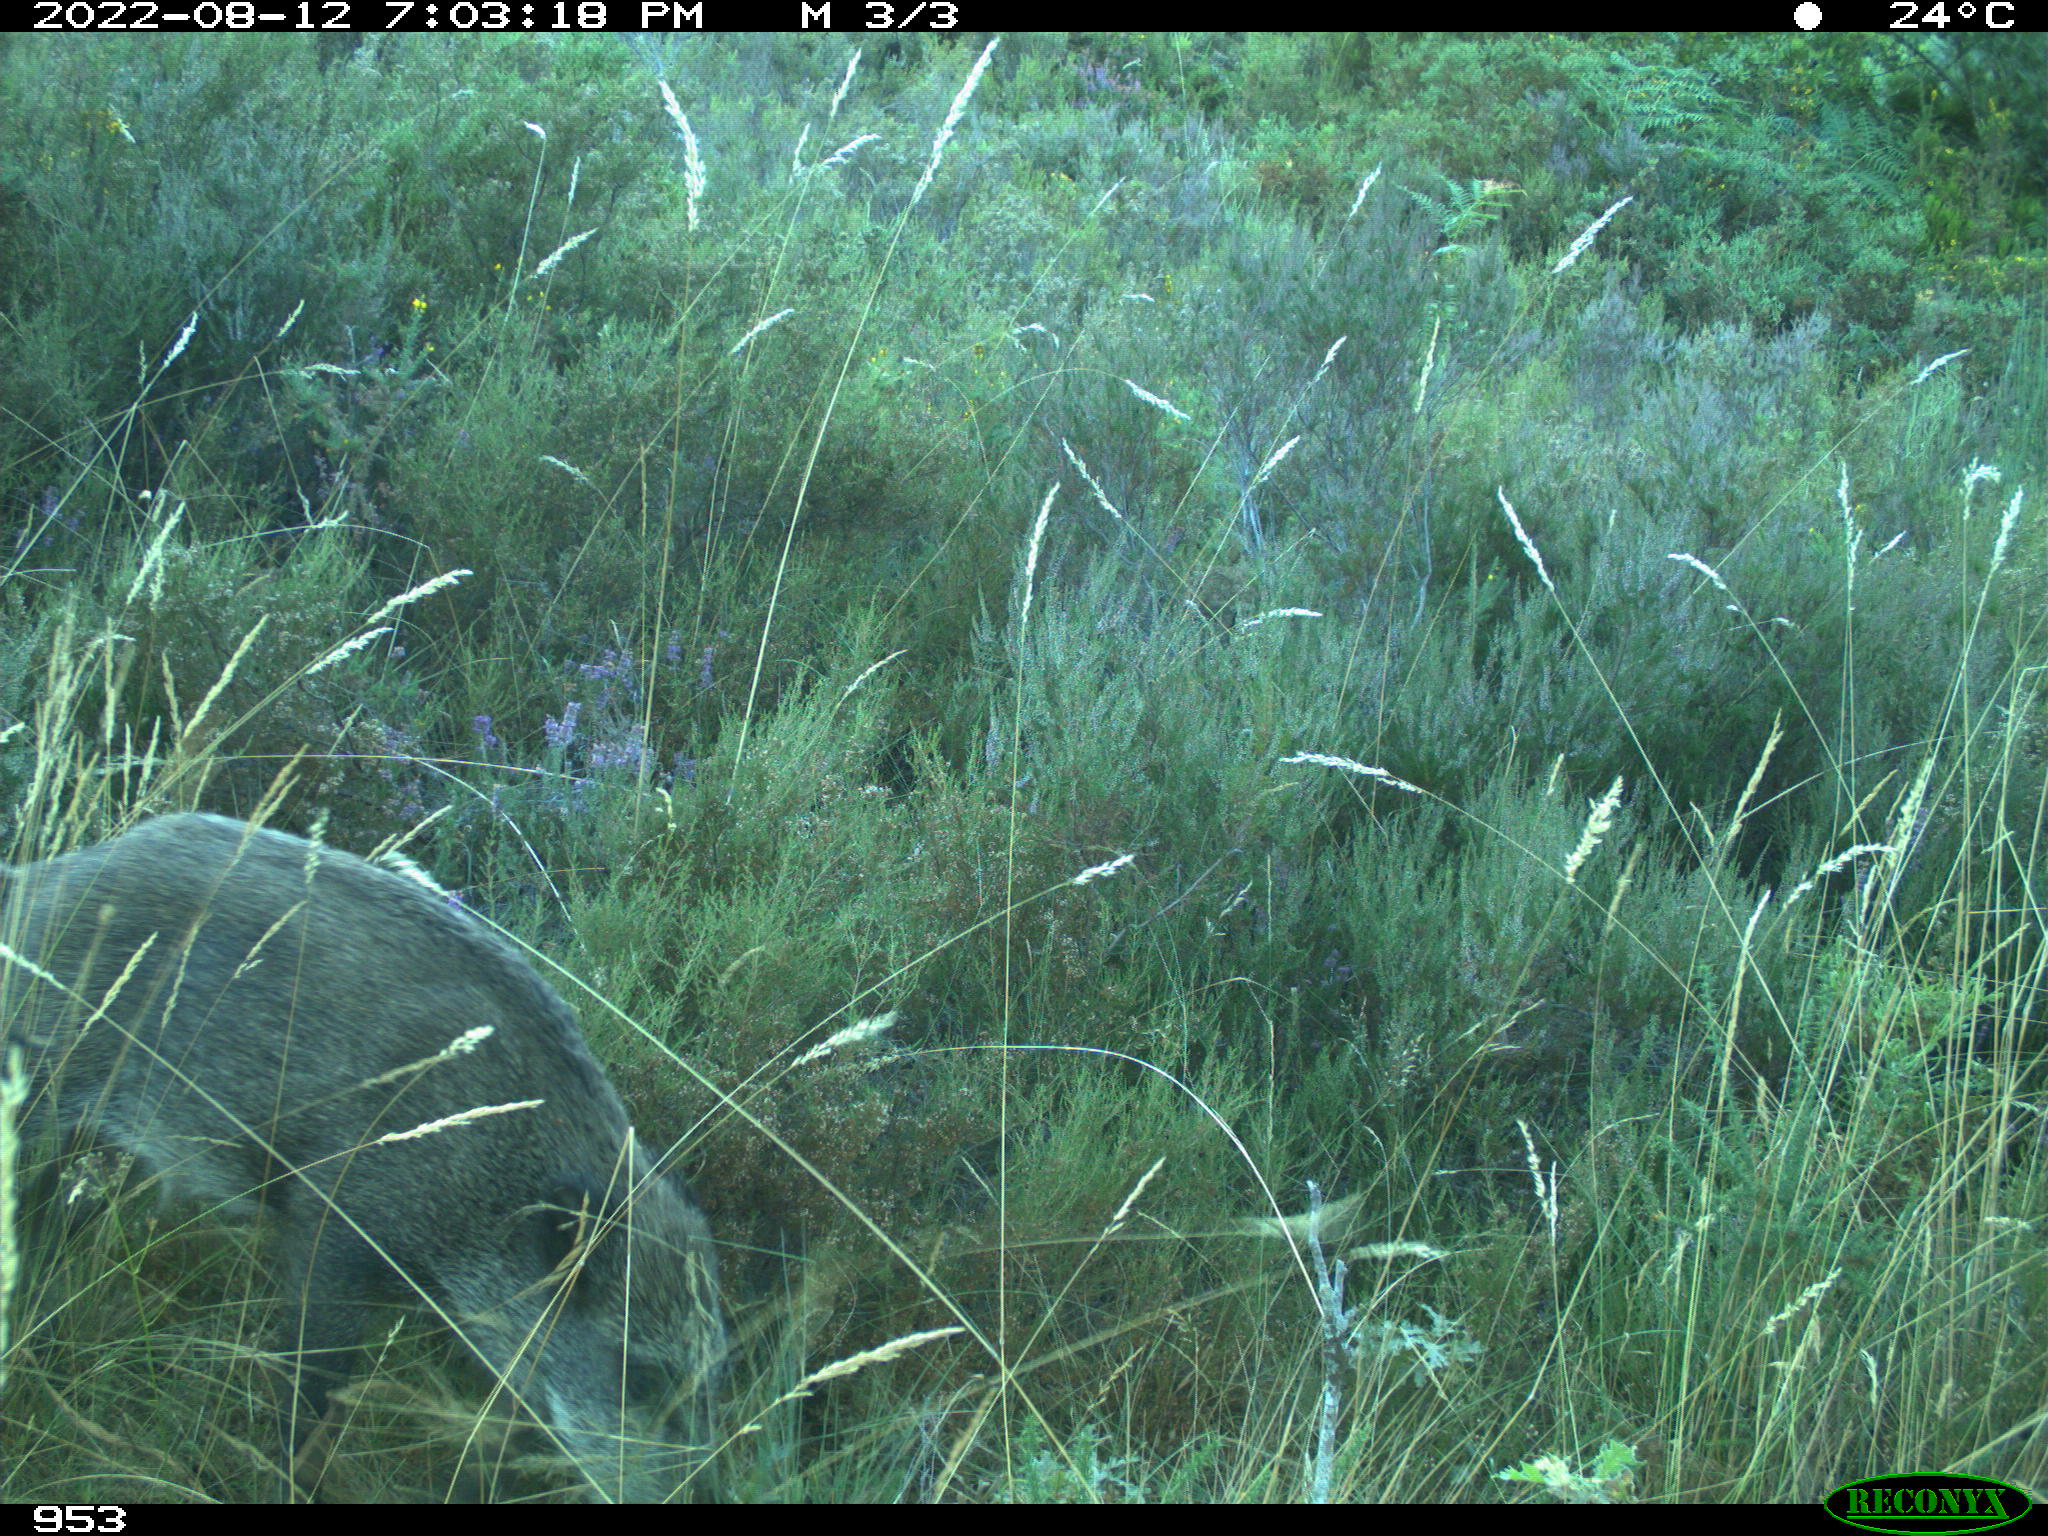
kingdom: Animalia
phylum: Chordata
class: Mammalia
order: Artiodactyla
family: Suidae
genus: Sus
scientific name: Sus scrofa
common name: Wild boar
